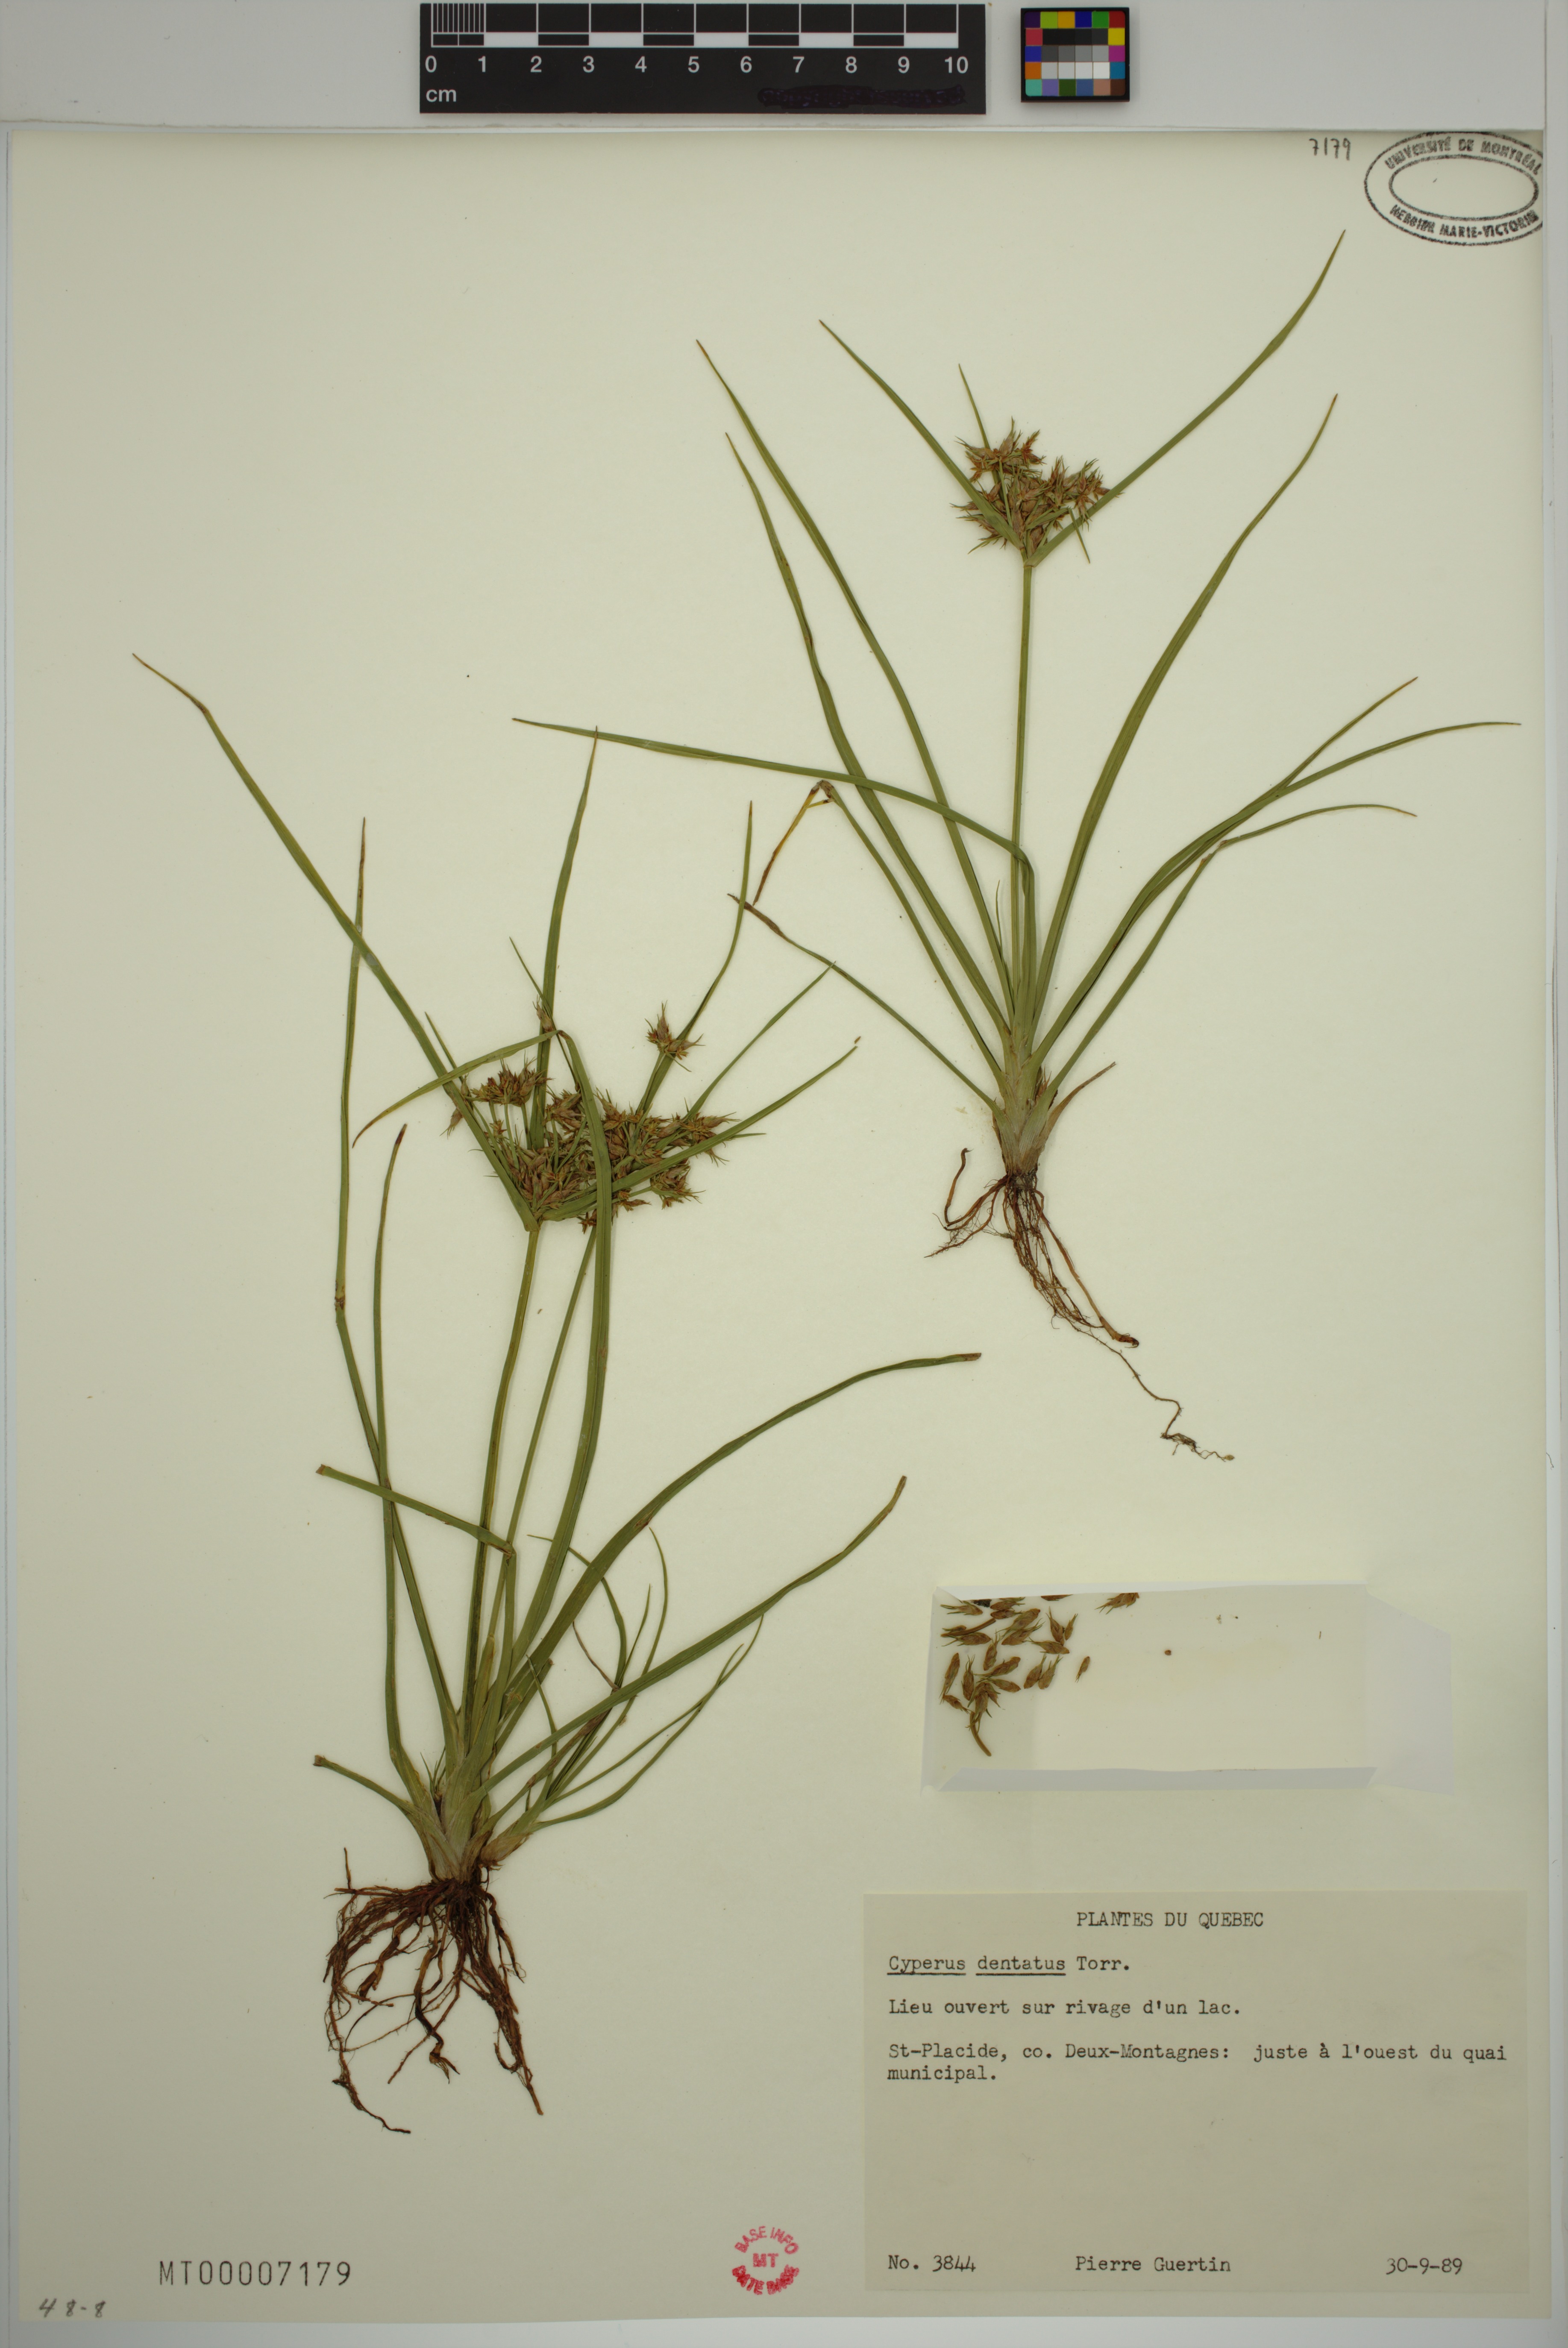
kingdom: Plantae
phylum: Tracheophyta
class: Liliopsida
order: Poales
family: Cyperaceae
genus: Cyperus
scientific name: Cyperus dentatus
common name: Dentate umbrella sedge
